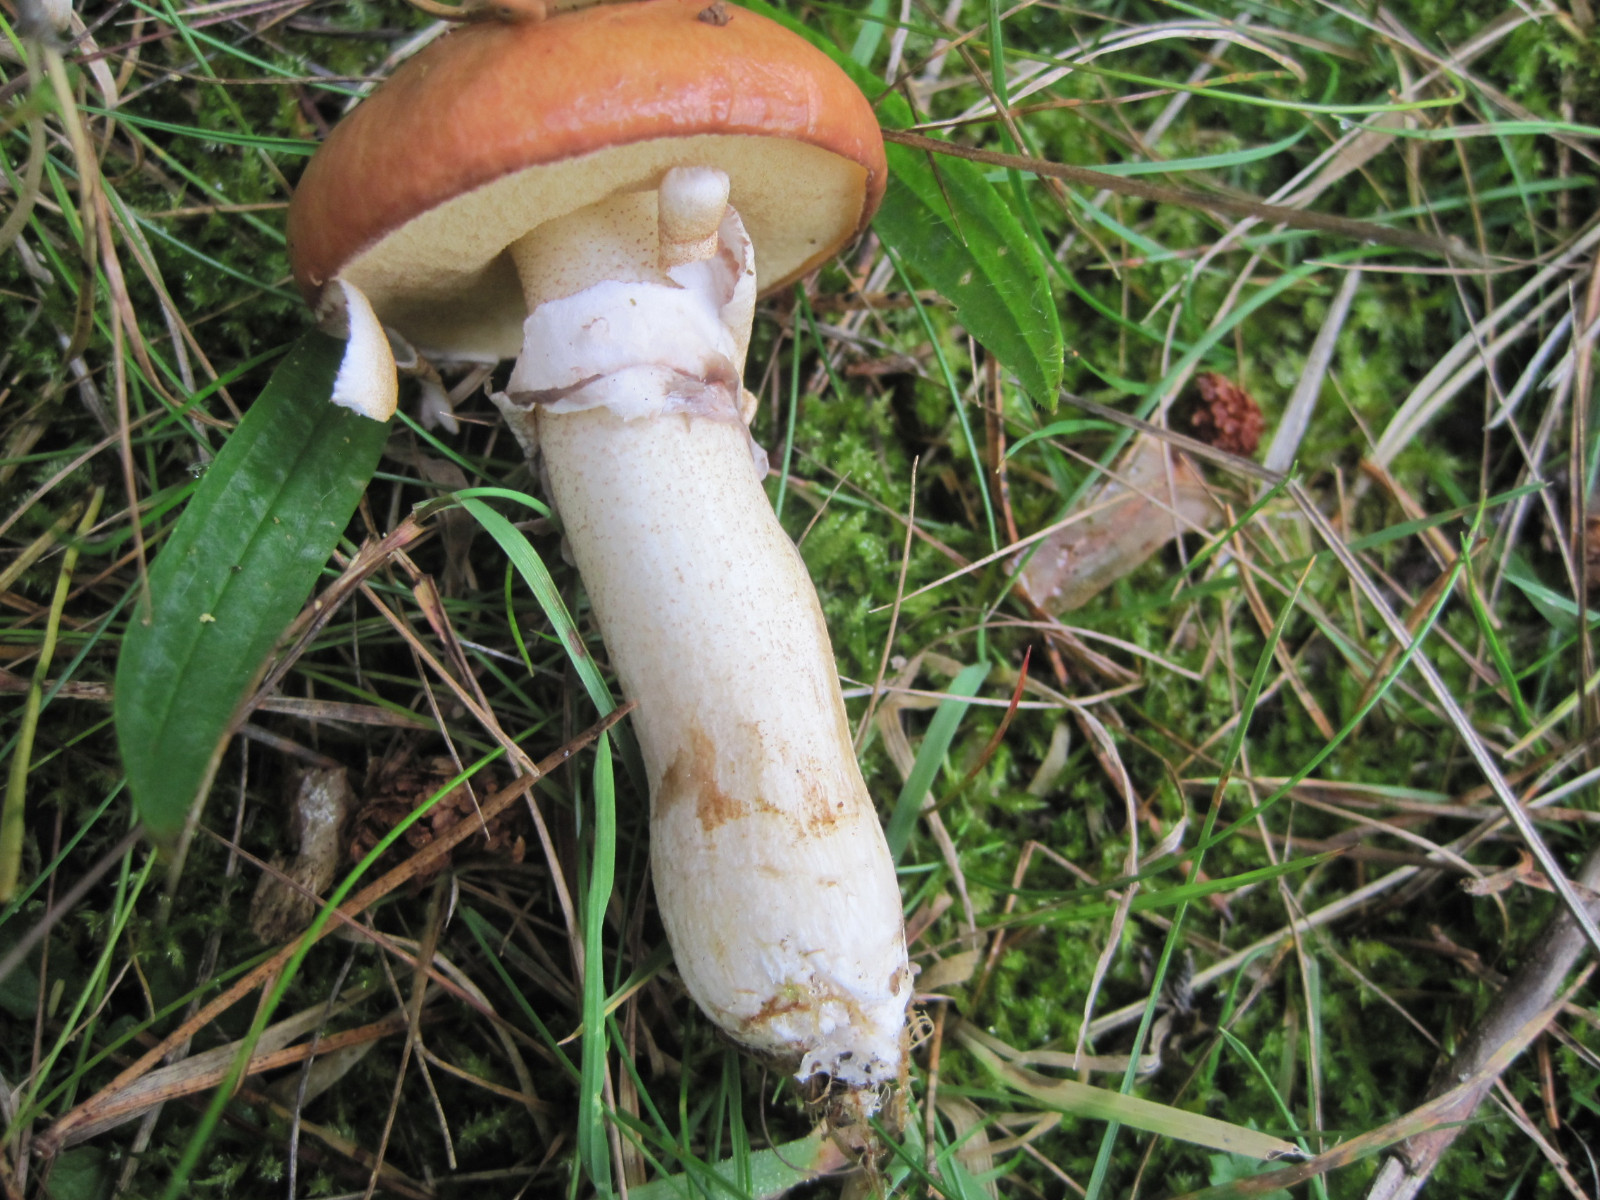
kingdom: Fungi
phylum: Basidiomycota
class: Agaricomycetes
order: Boletales
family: Suillaceae
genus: Suillus
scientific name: Suillus luteus
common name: brungul slimrørhat
